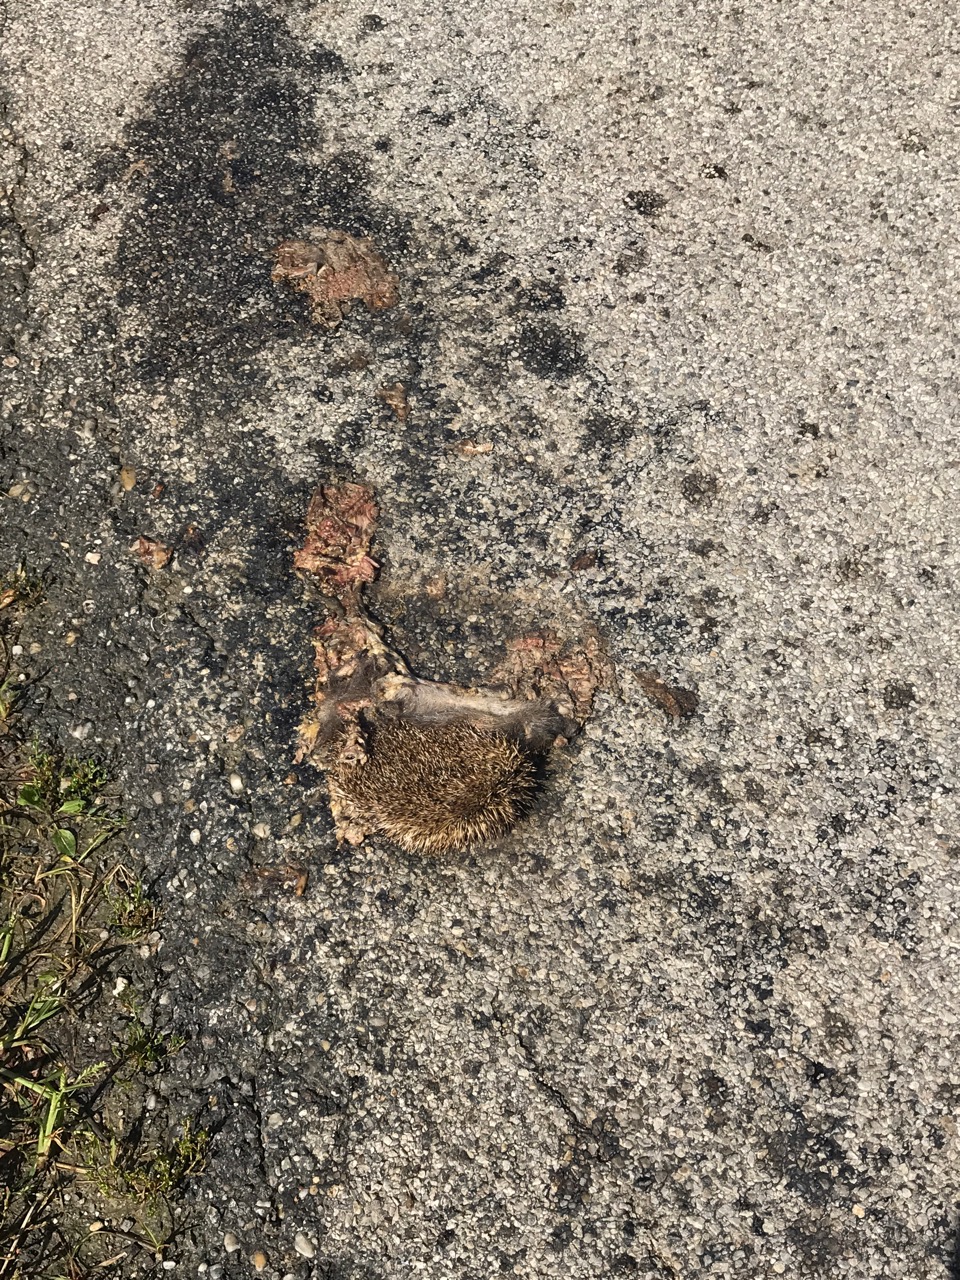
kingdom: Animalia
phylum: Chordata
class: Mammalia
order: Erinaceomorpha
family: Erinaceidae
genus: Erinaceus
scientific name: Erinaceus
